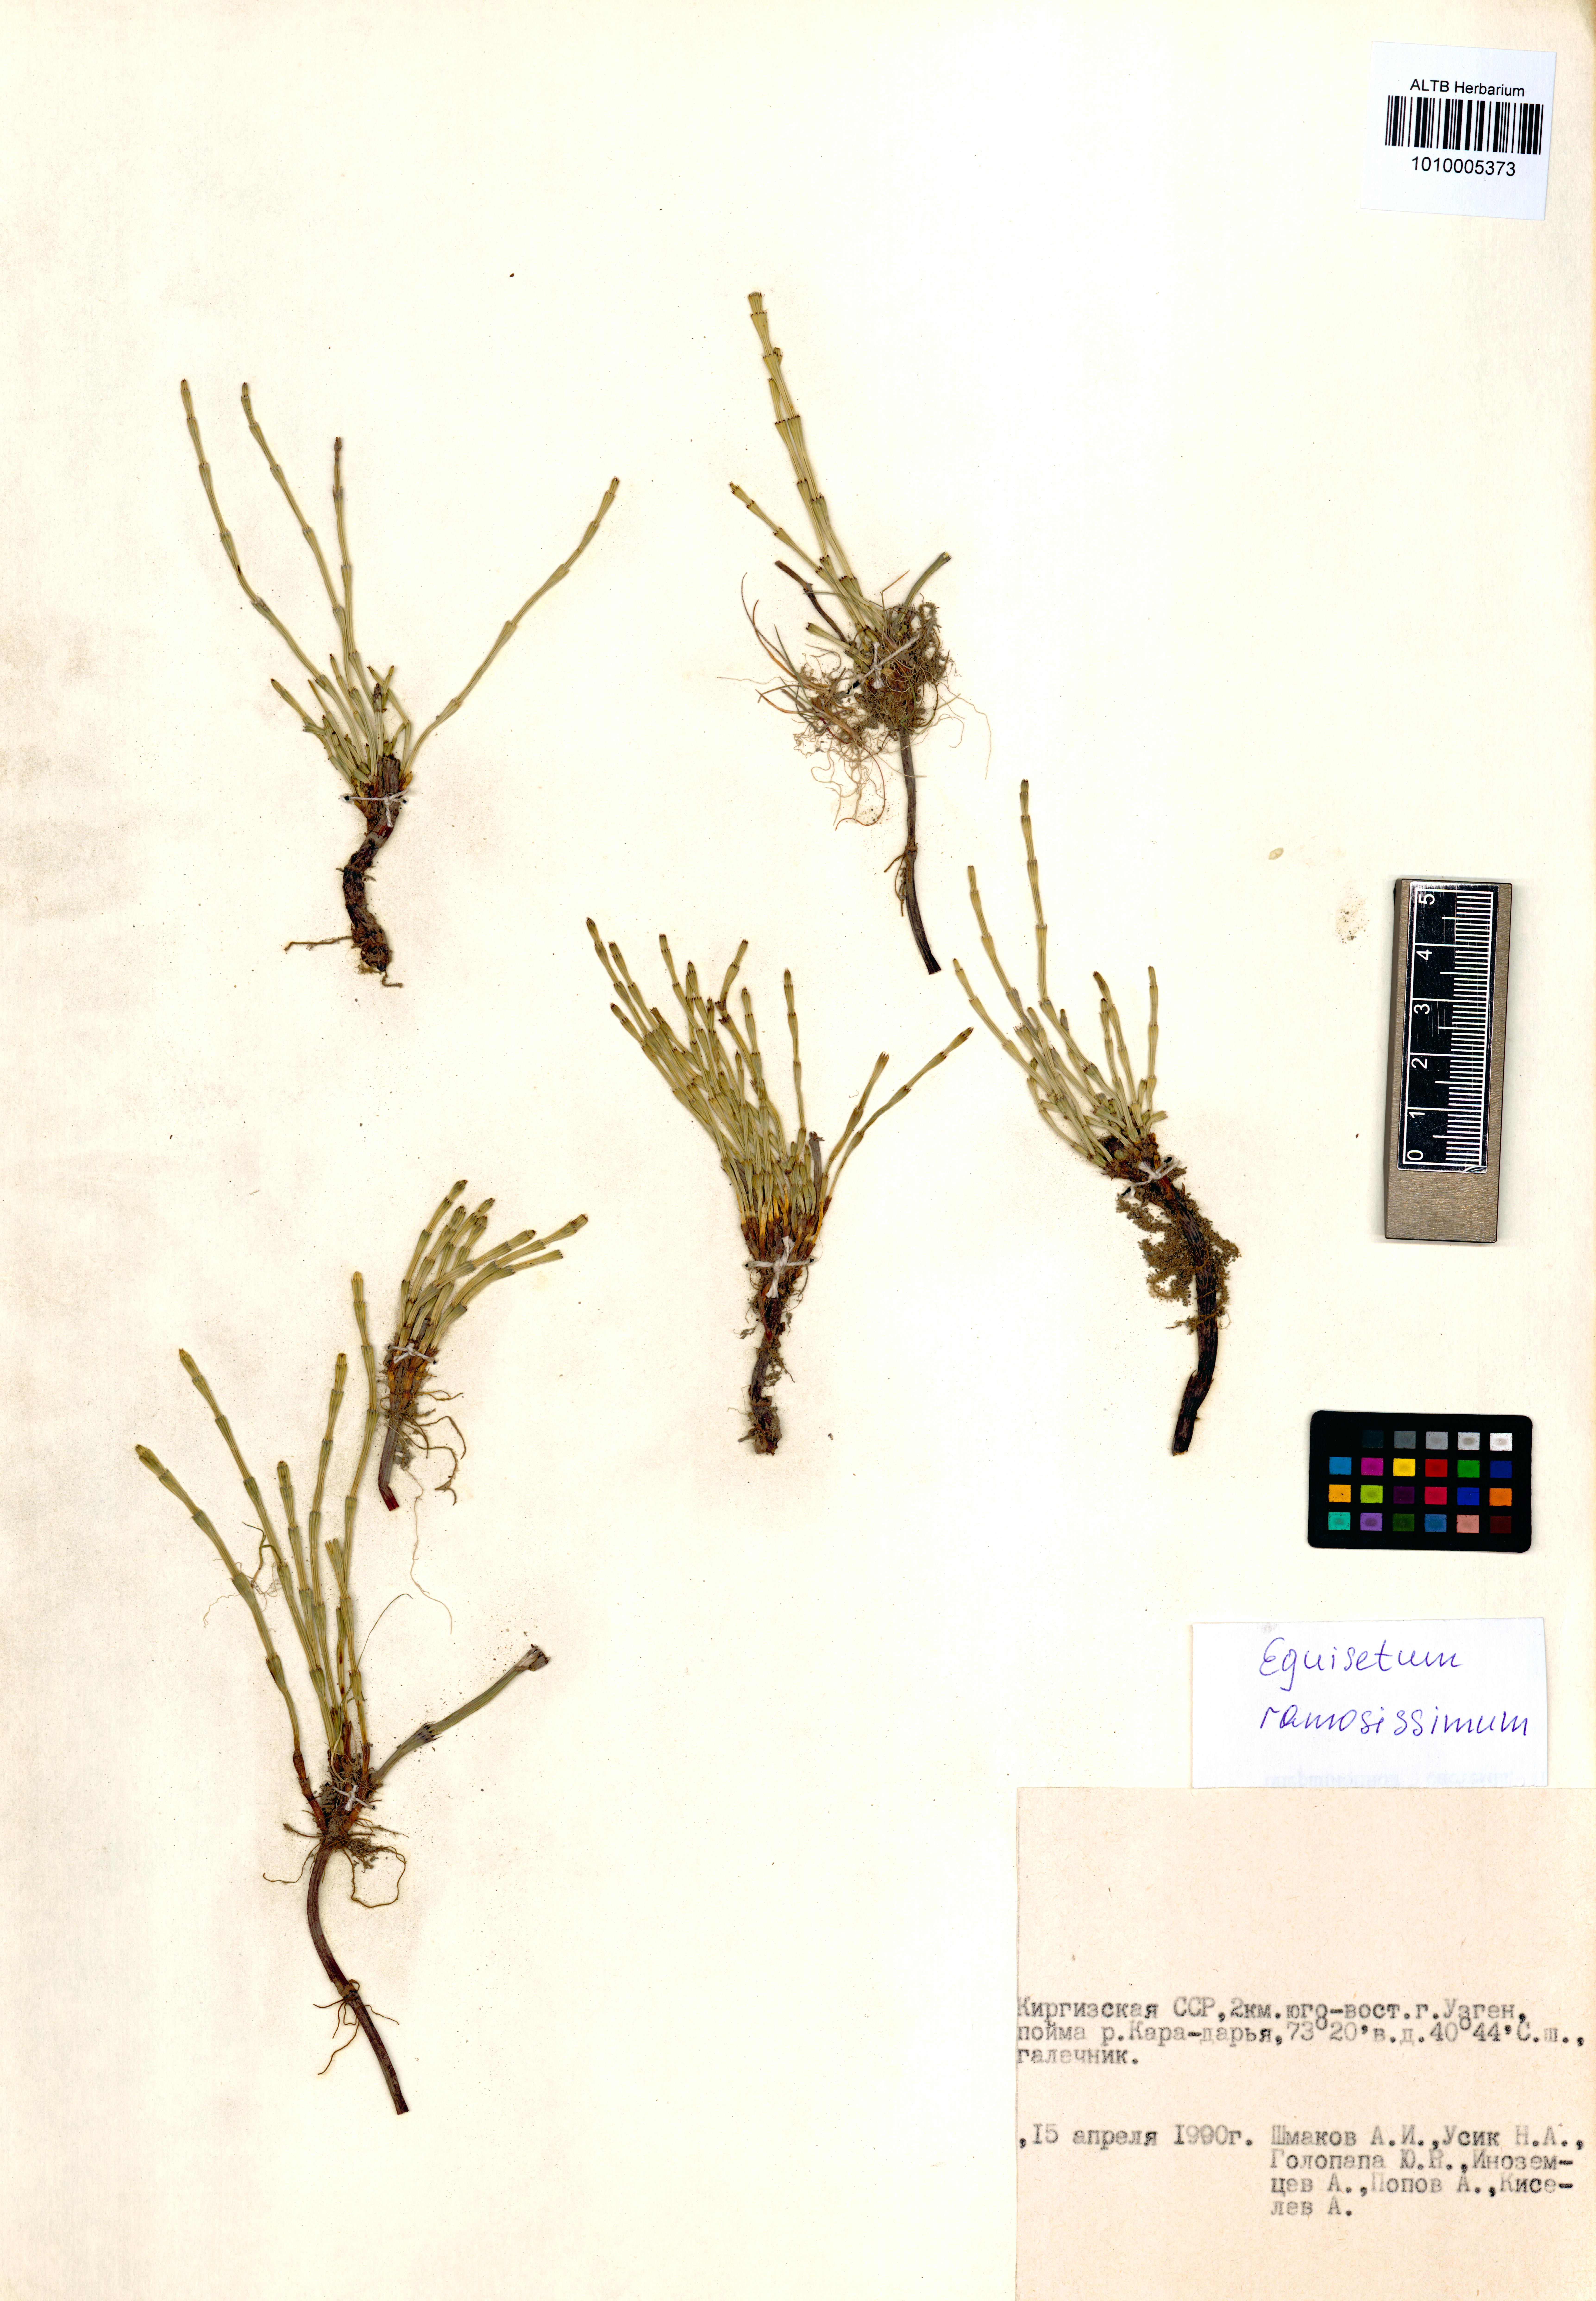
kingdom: Plantae
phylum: Tracheophyta
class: Polypodiopsida
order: Equisetales
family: Equisetaceae
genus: Equisetum
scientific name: Equisetum ramosissimum
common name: Branched horsetail
